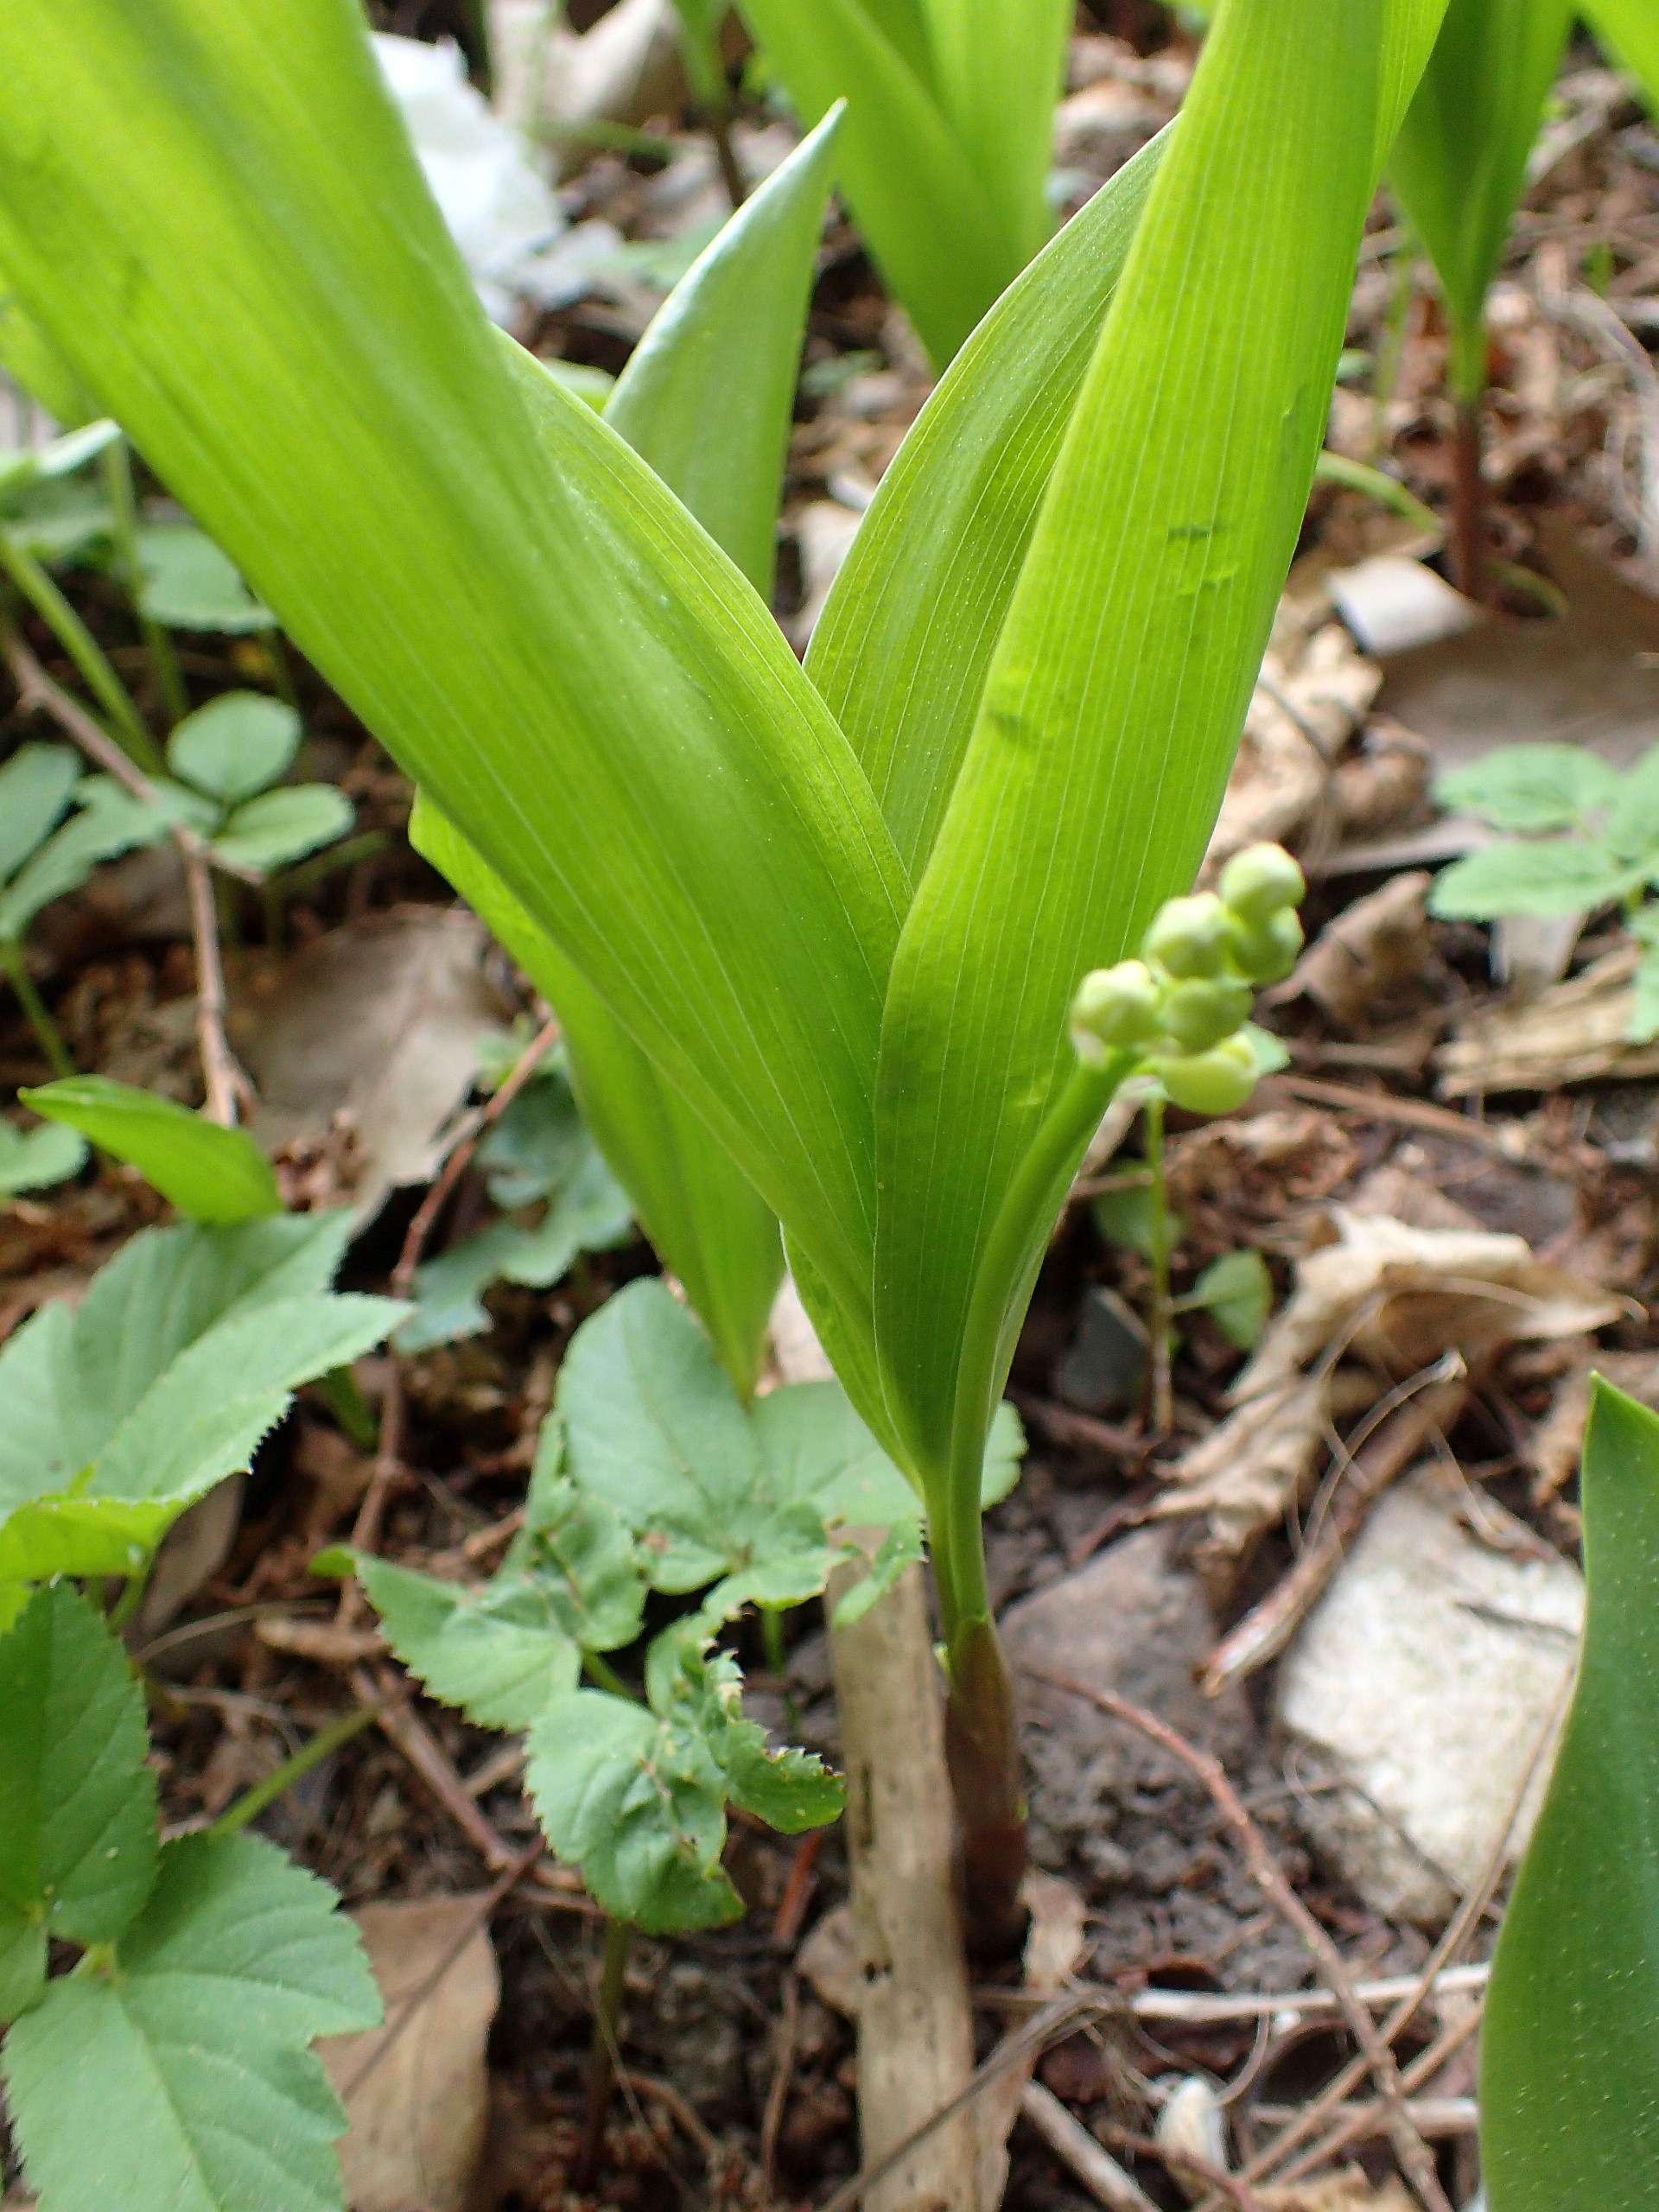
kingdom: Plantae
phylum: Tracheophyta
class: Liliopsida
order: Asparagales
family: Asparagaceae
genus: Convallaria
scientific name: Convallaria majalis
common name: Liljekonval
